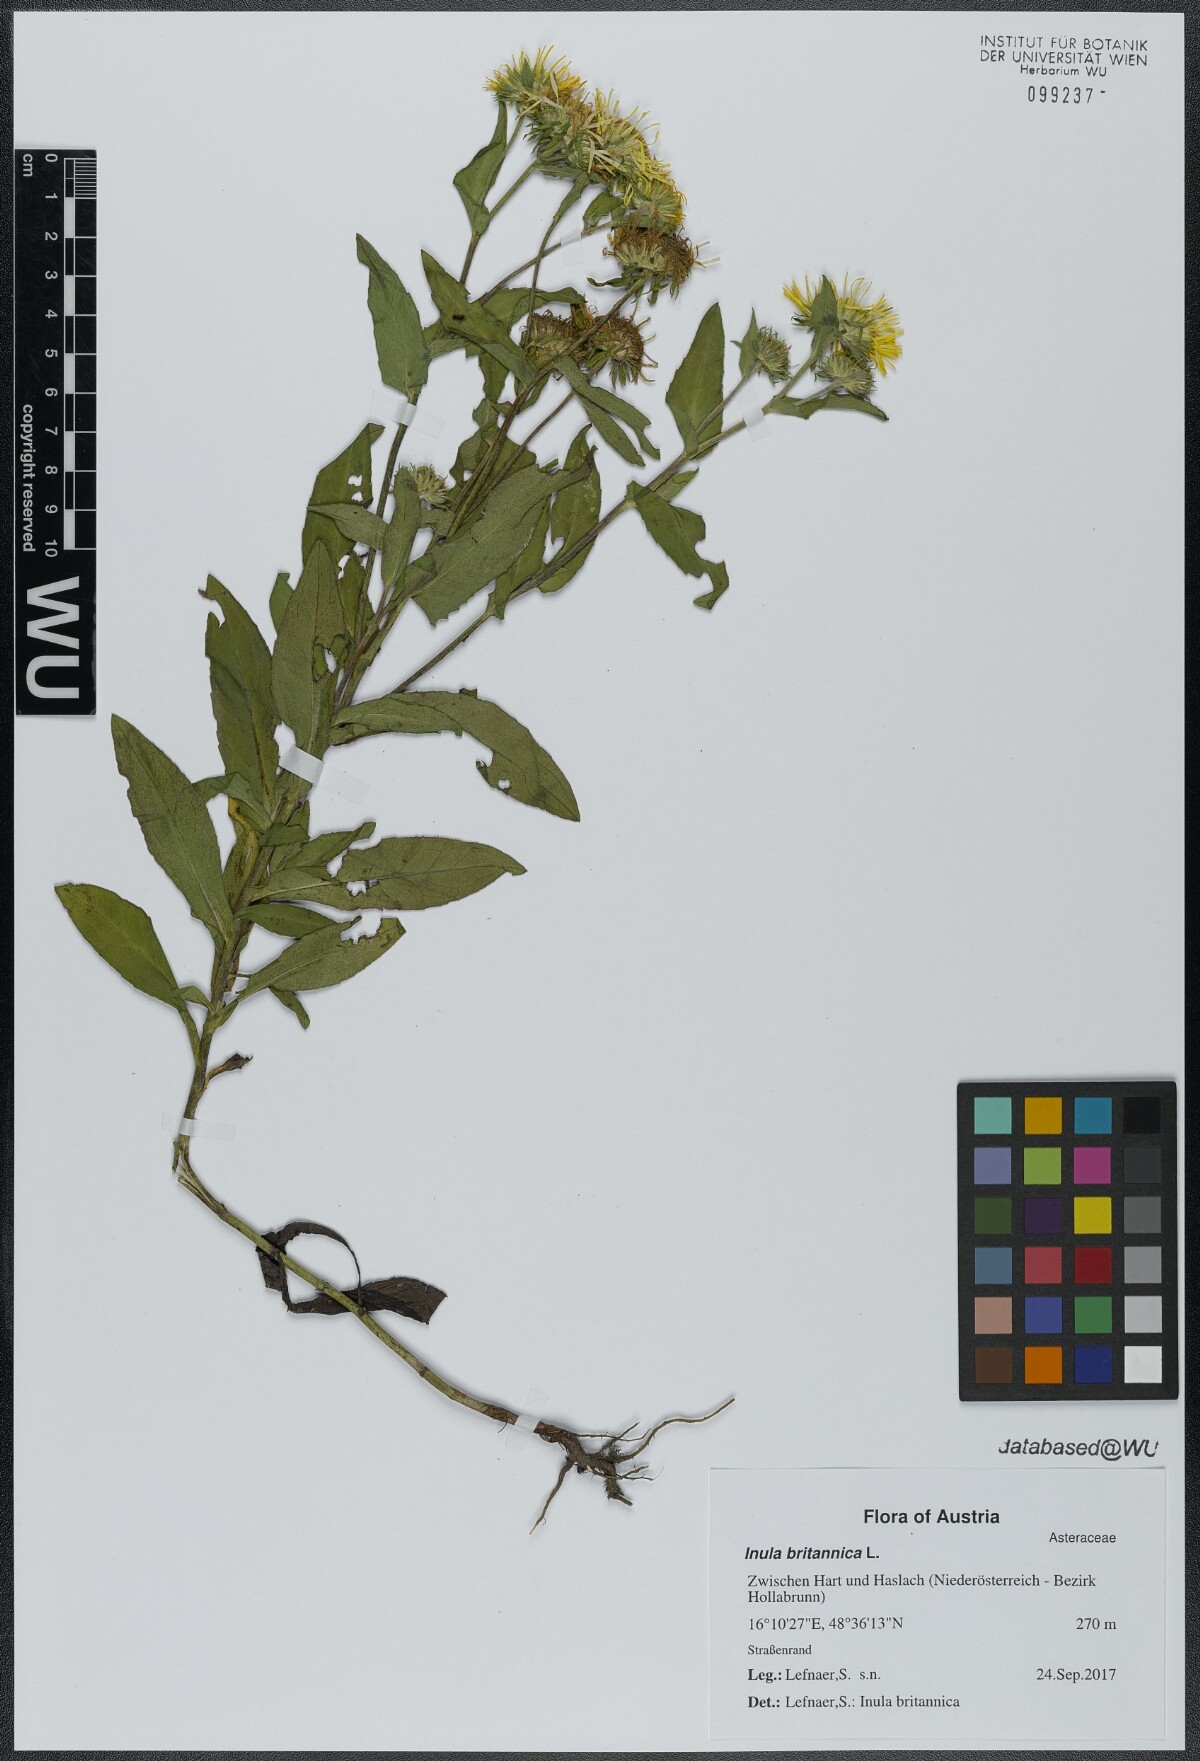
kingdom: Plantae
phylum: Tracheophyta
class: Magnoliopsida
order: Asterales
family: Asteraceae
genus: Pentanema
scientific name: Pentanema britannicum
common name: British elecampane
